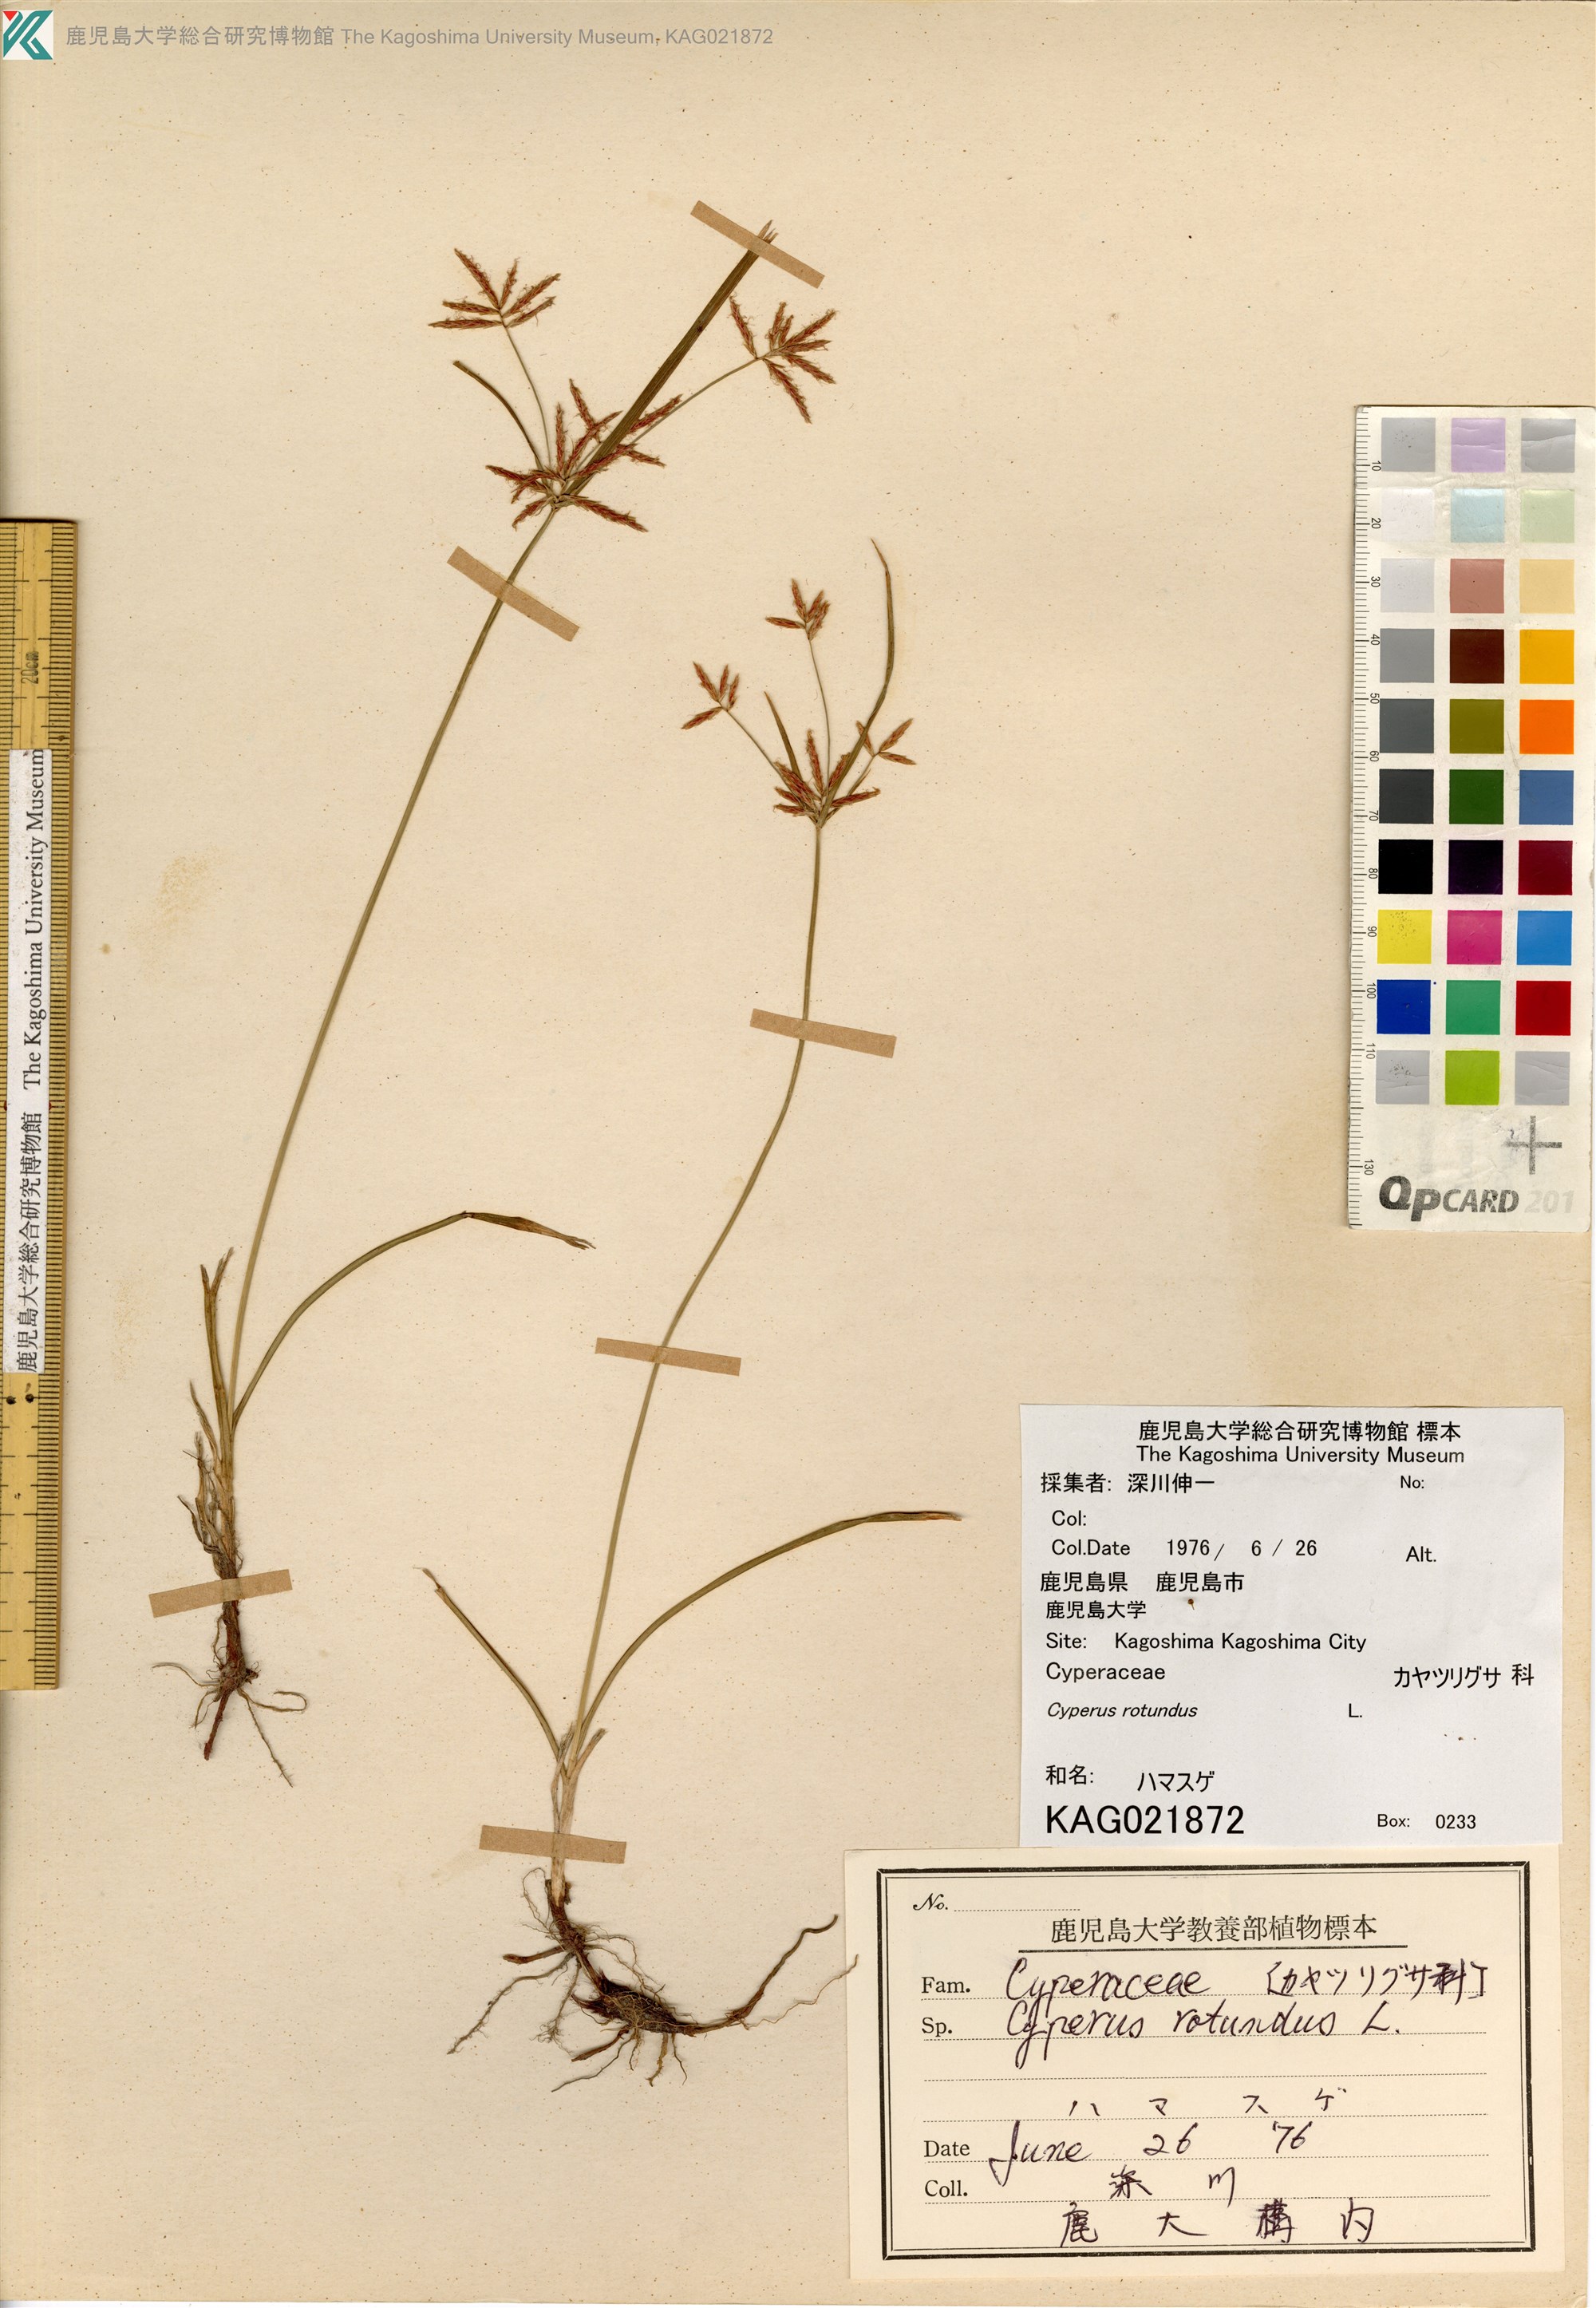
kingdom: Plantae
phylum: Tracheophyta
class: Liliopsida
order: Poales
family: Cyperaceae
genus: Cyperus
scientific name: Cyperus rotundus
